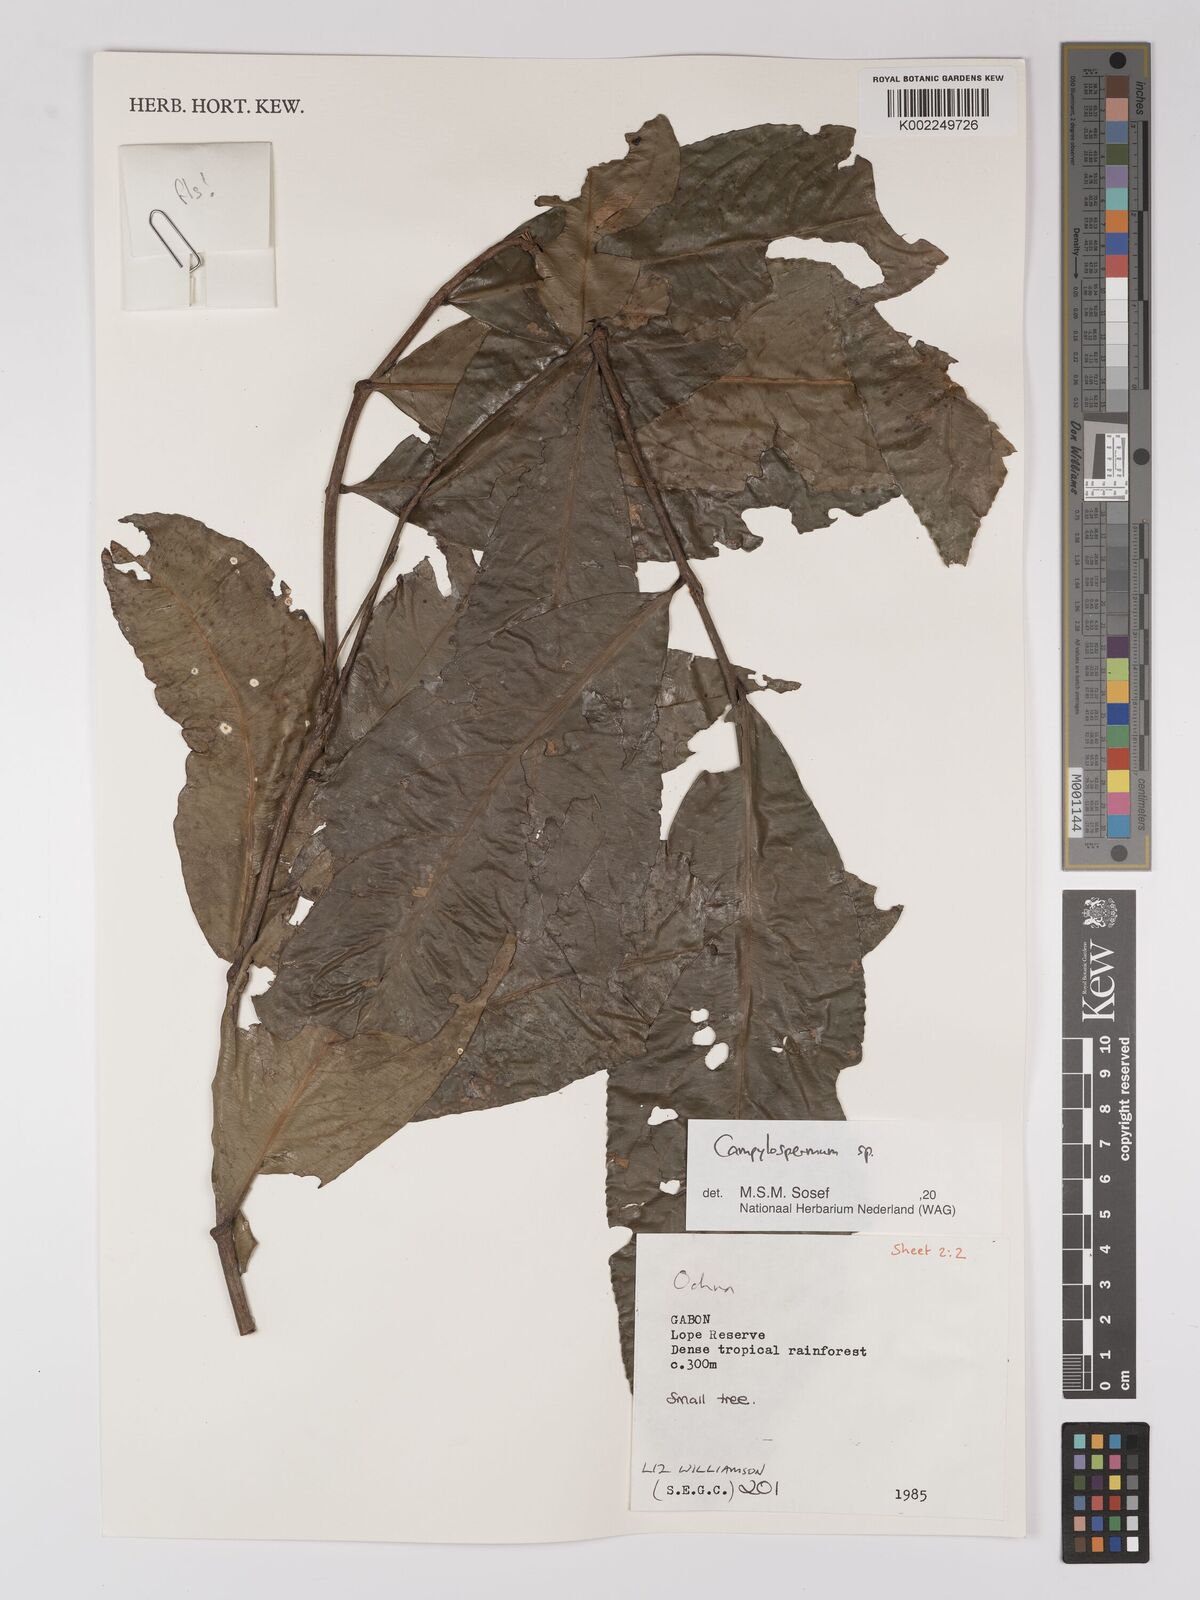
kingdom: Plantae
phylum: Tracheophyta
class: Magnoliopsida
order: Malpighiales
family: Ochnaceae
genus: Campylospermum
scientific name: Campylospermum
